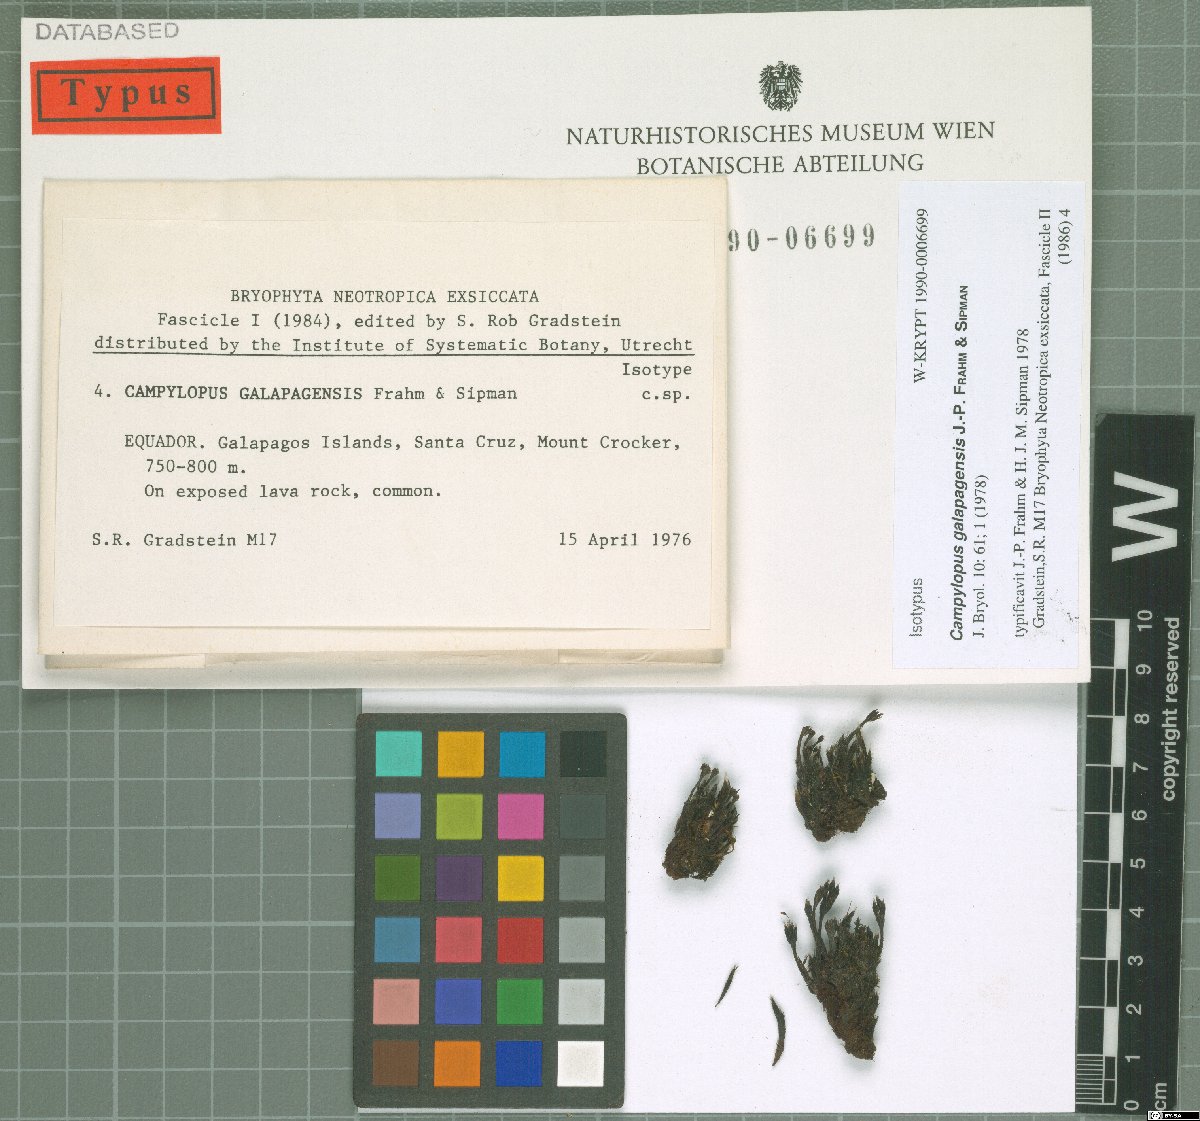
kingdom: Plantae
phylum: Bryophyta
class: Bryopsida
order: Dicranales
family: Leucobryaceae
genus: Campylopus
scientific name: Campylopus pilifer
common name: Campylopus moss
